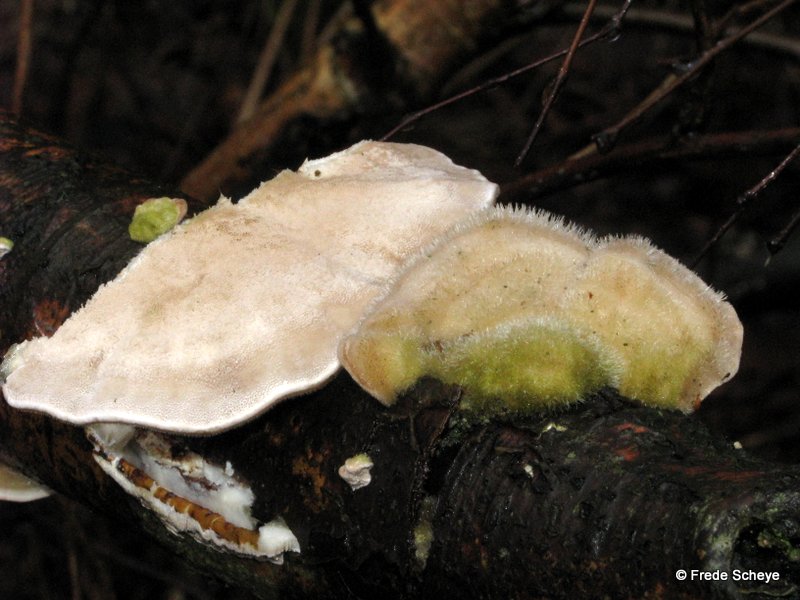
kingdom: Fungi
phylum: Basidiomycota
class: Agaricomycetes
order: Polyporales
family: Polyporaceae
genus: Trametes
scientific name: Trametes hirsuta
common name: håret læderporesvamp
